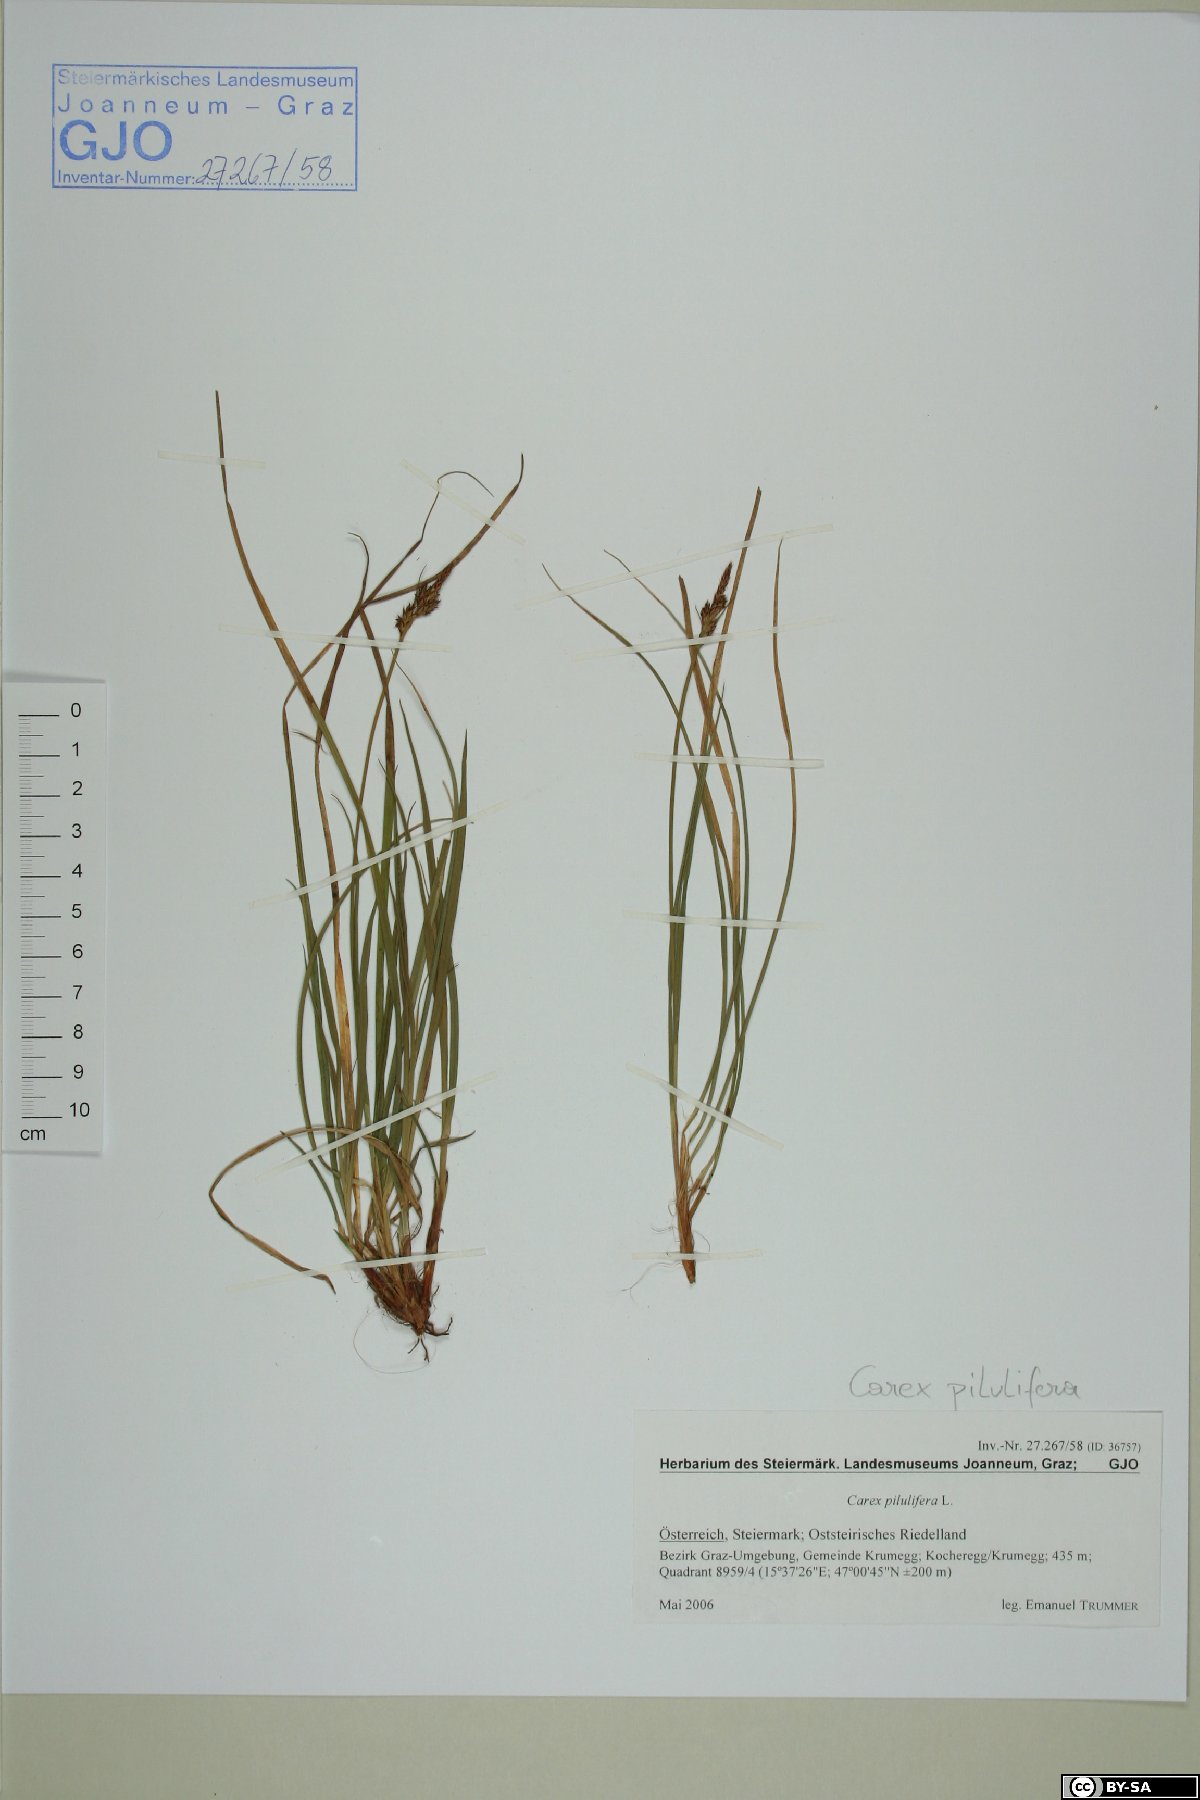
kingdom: Plantae
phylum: Tracheophyta
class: Liliopsida
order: Poales
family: Cyperaceae
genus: Carex
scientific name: Carex pilulifera
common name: Pill sedge
